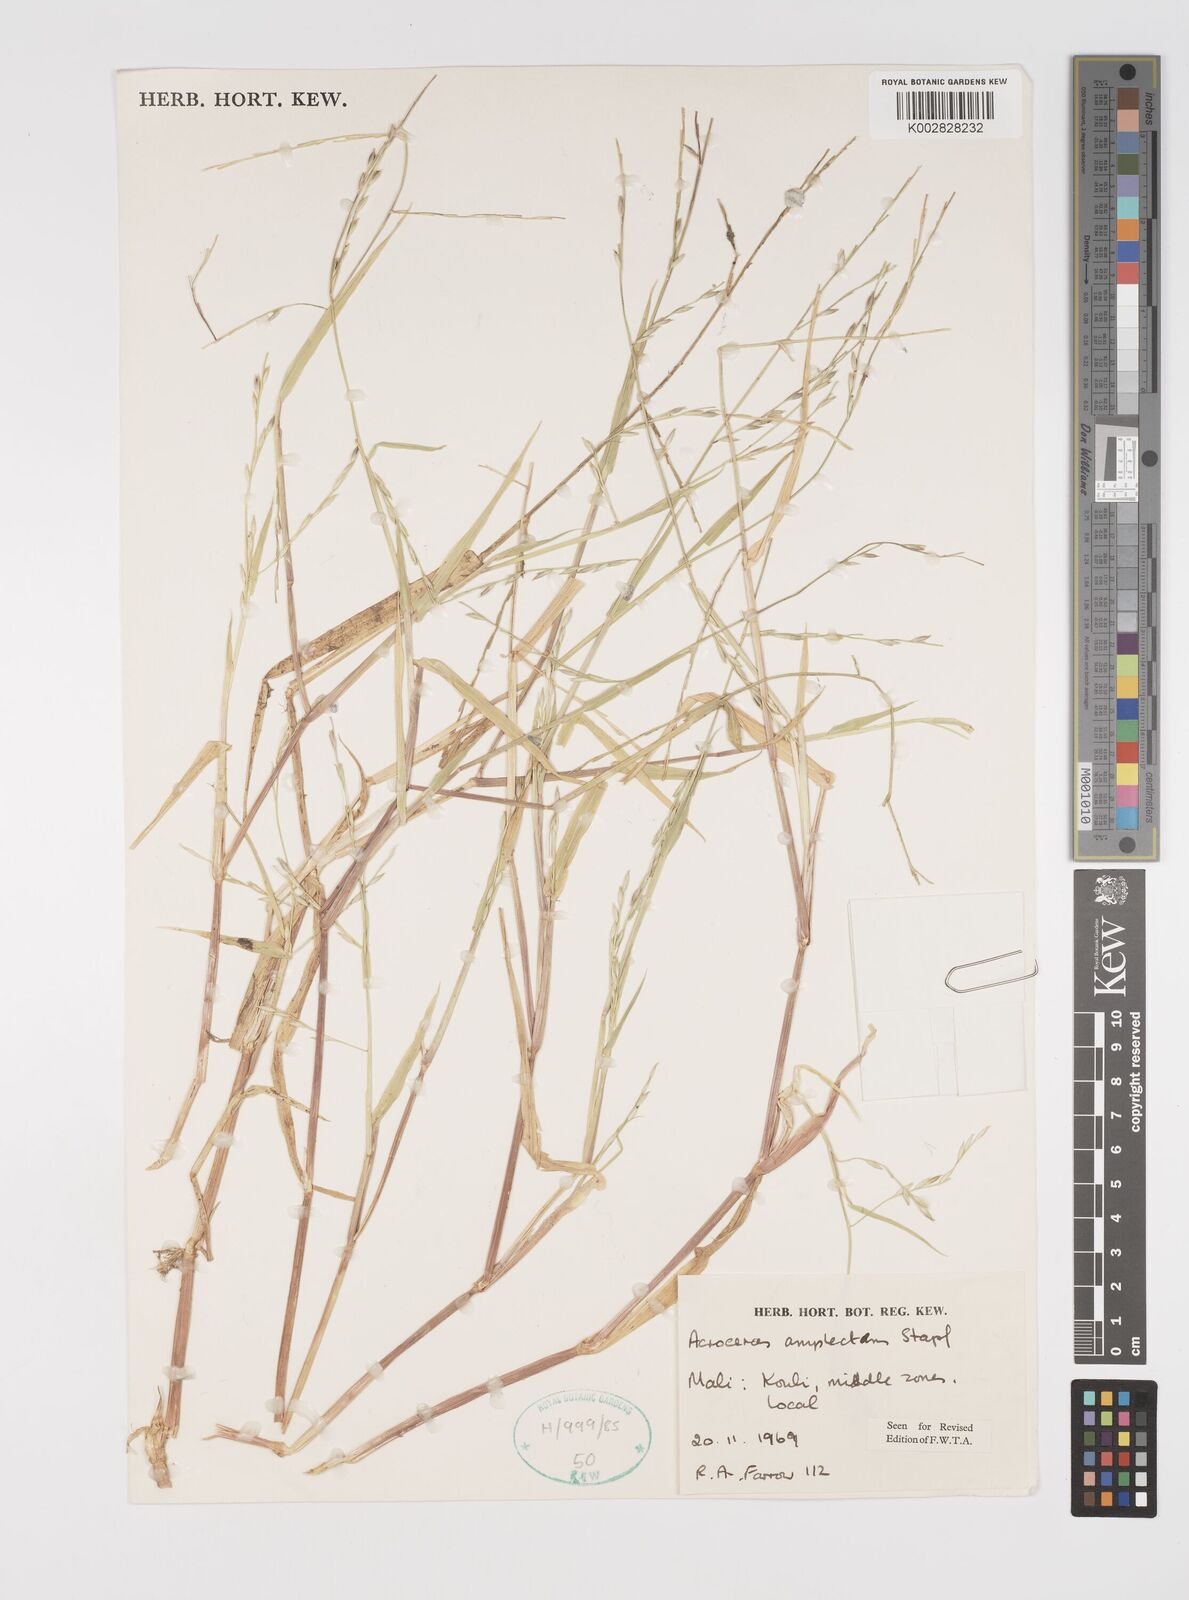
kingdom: Plantae
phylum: Tracheophyta
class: Liliopsida
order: Poales
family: Poaceae
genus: Acroceras
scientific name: Acroceras amplectens
